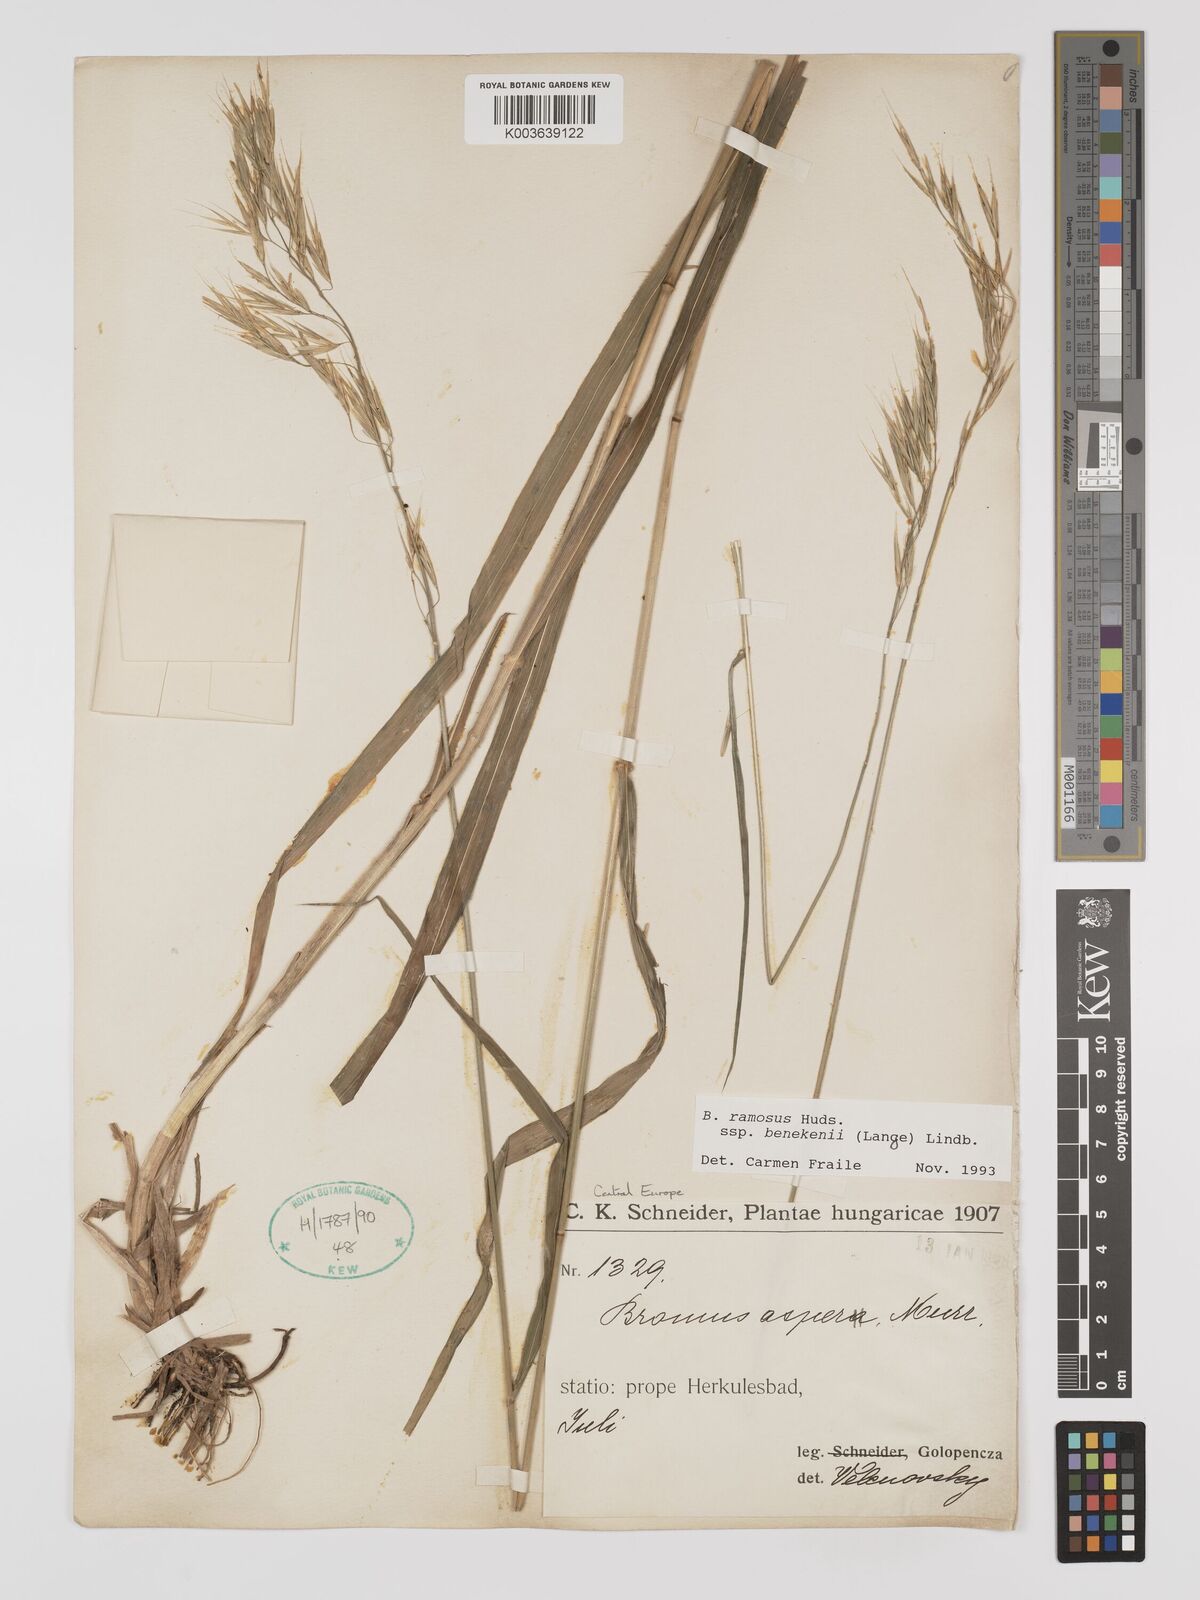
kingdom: Plantae
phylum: Tracheophyta
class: Liliopsida
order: Poales
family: Poaceae
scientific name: Poaceae
